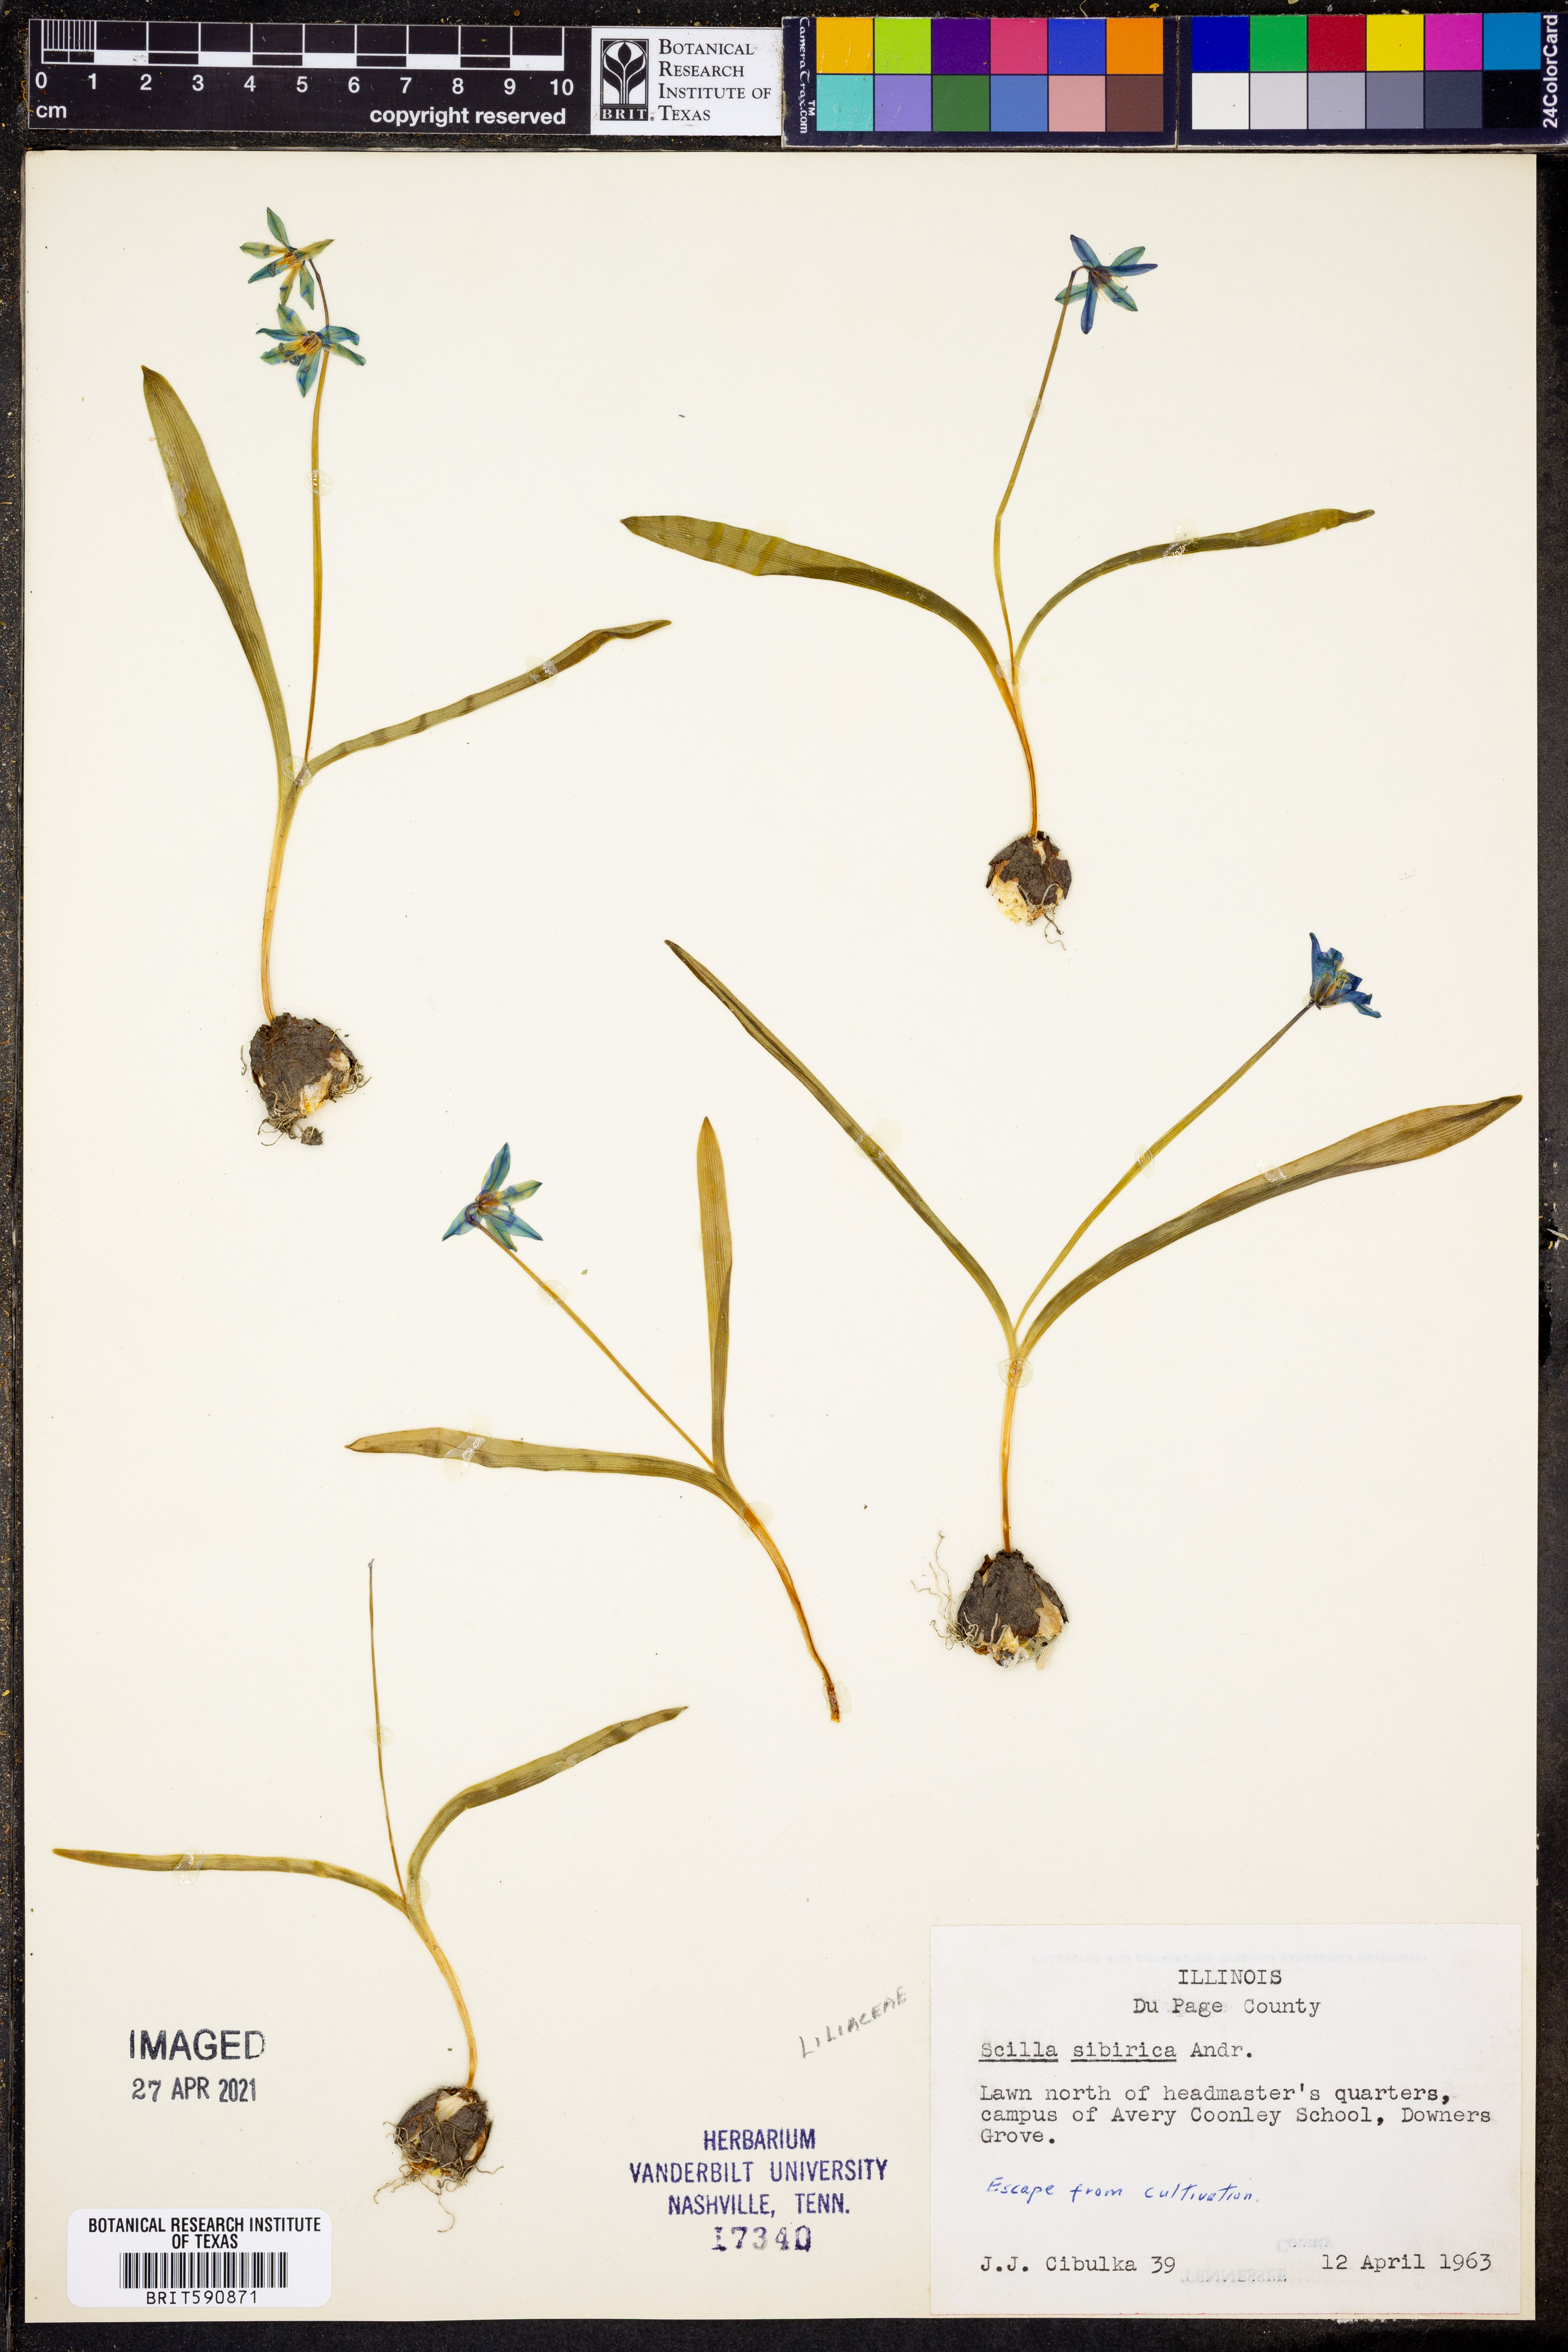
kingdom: Plantae
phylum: Tracheophyta
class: Liliopsida
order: Asparagales
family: Asparagaceae
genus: Scilla
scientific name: Scilla siberica
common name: Siberian squill
